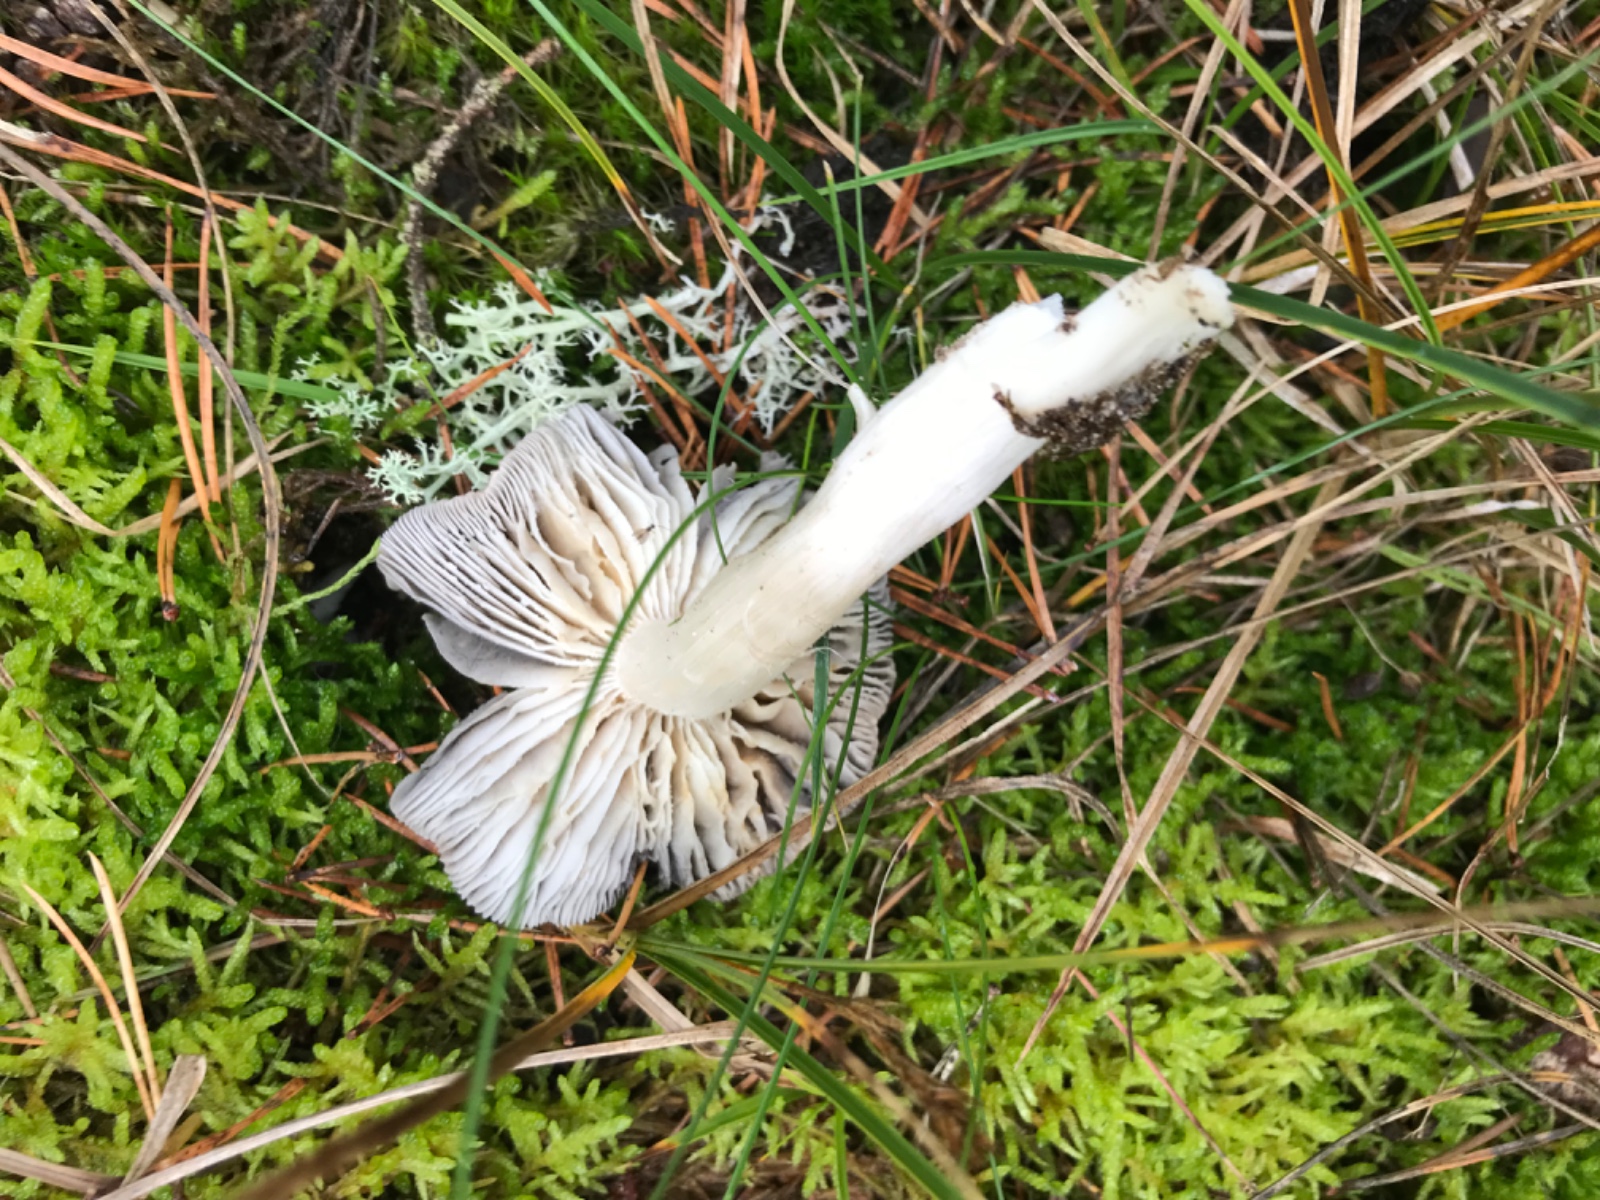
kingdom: Fungi
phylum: Basidiomycota
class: Agaricomycetes
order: Agaricales
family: Tricholomataceae
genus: Tricholoma
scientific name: Tricholoma terreum
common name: jordfarvet ridderhat
